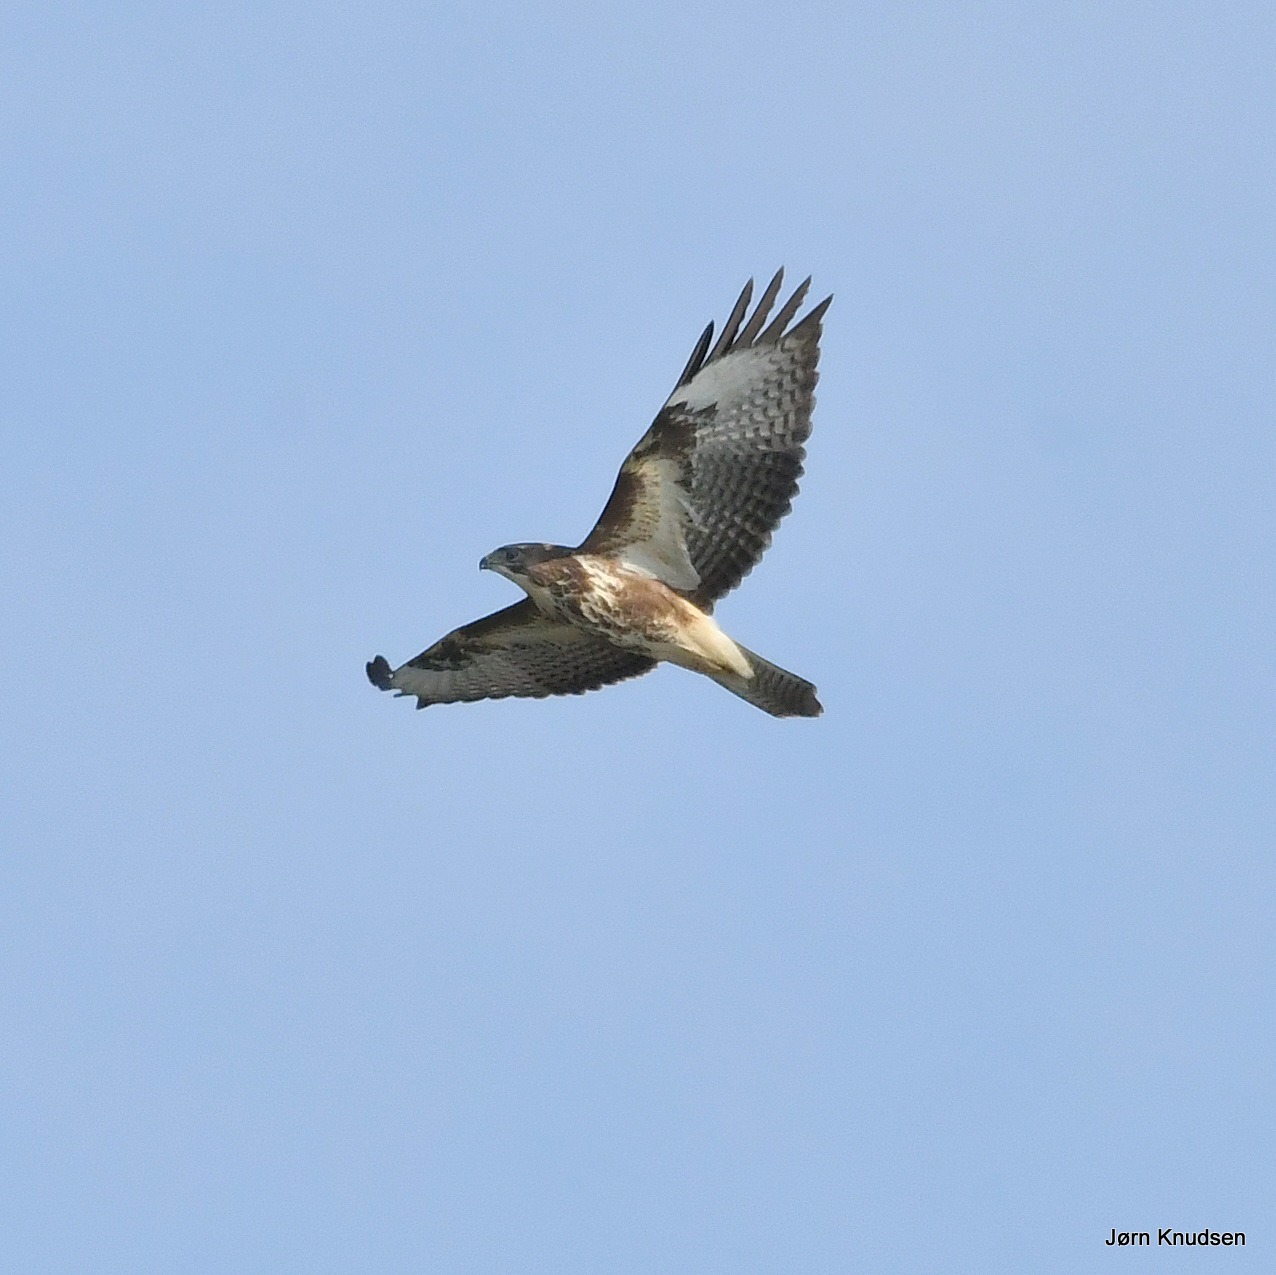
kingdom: Animalia
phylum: Chordata
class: Aves
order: Accipitriformes
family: Accipitridae
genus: Buteo
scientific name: Buteo buteo
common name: Musvåge
